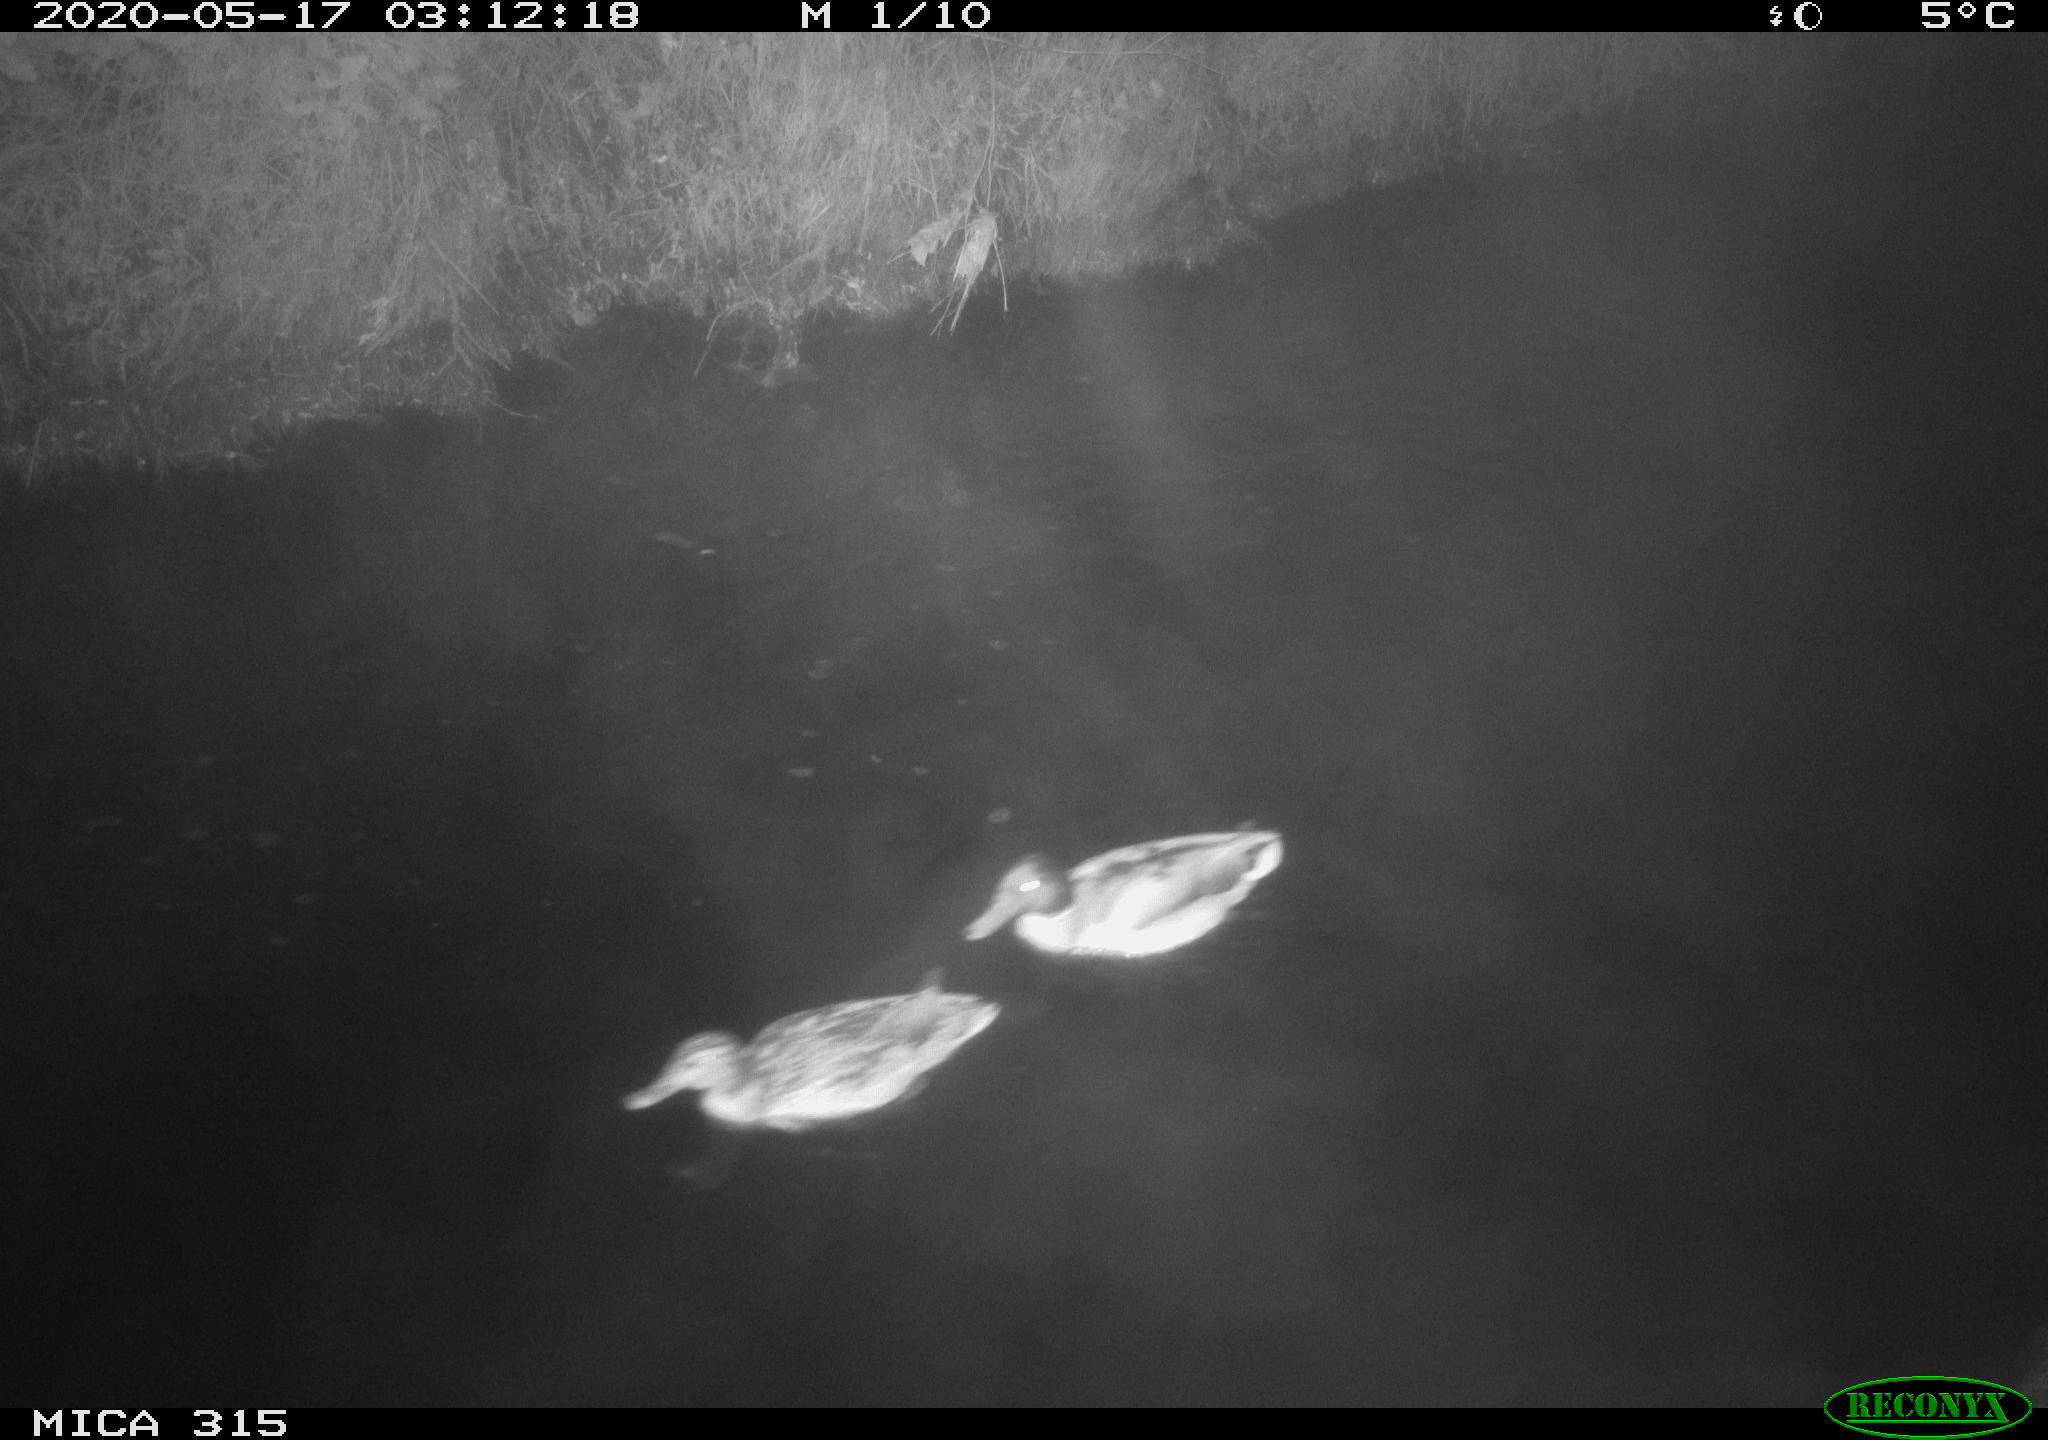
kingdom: Animalia
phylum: Chordata
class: Aves
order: Anseriformes
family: Anatidae
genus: Anas
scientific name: Anas platyrhynchos
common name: Mallard
